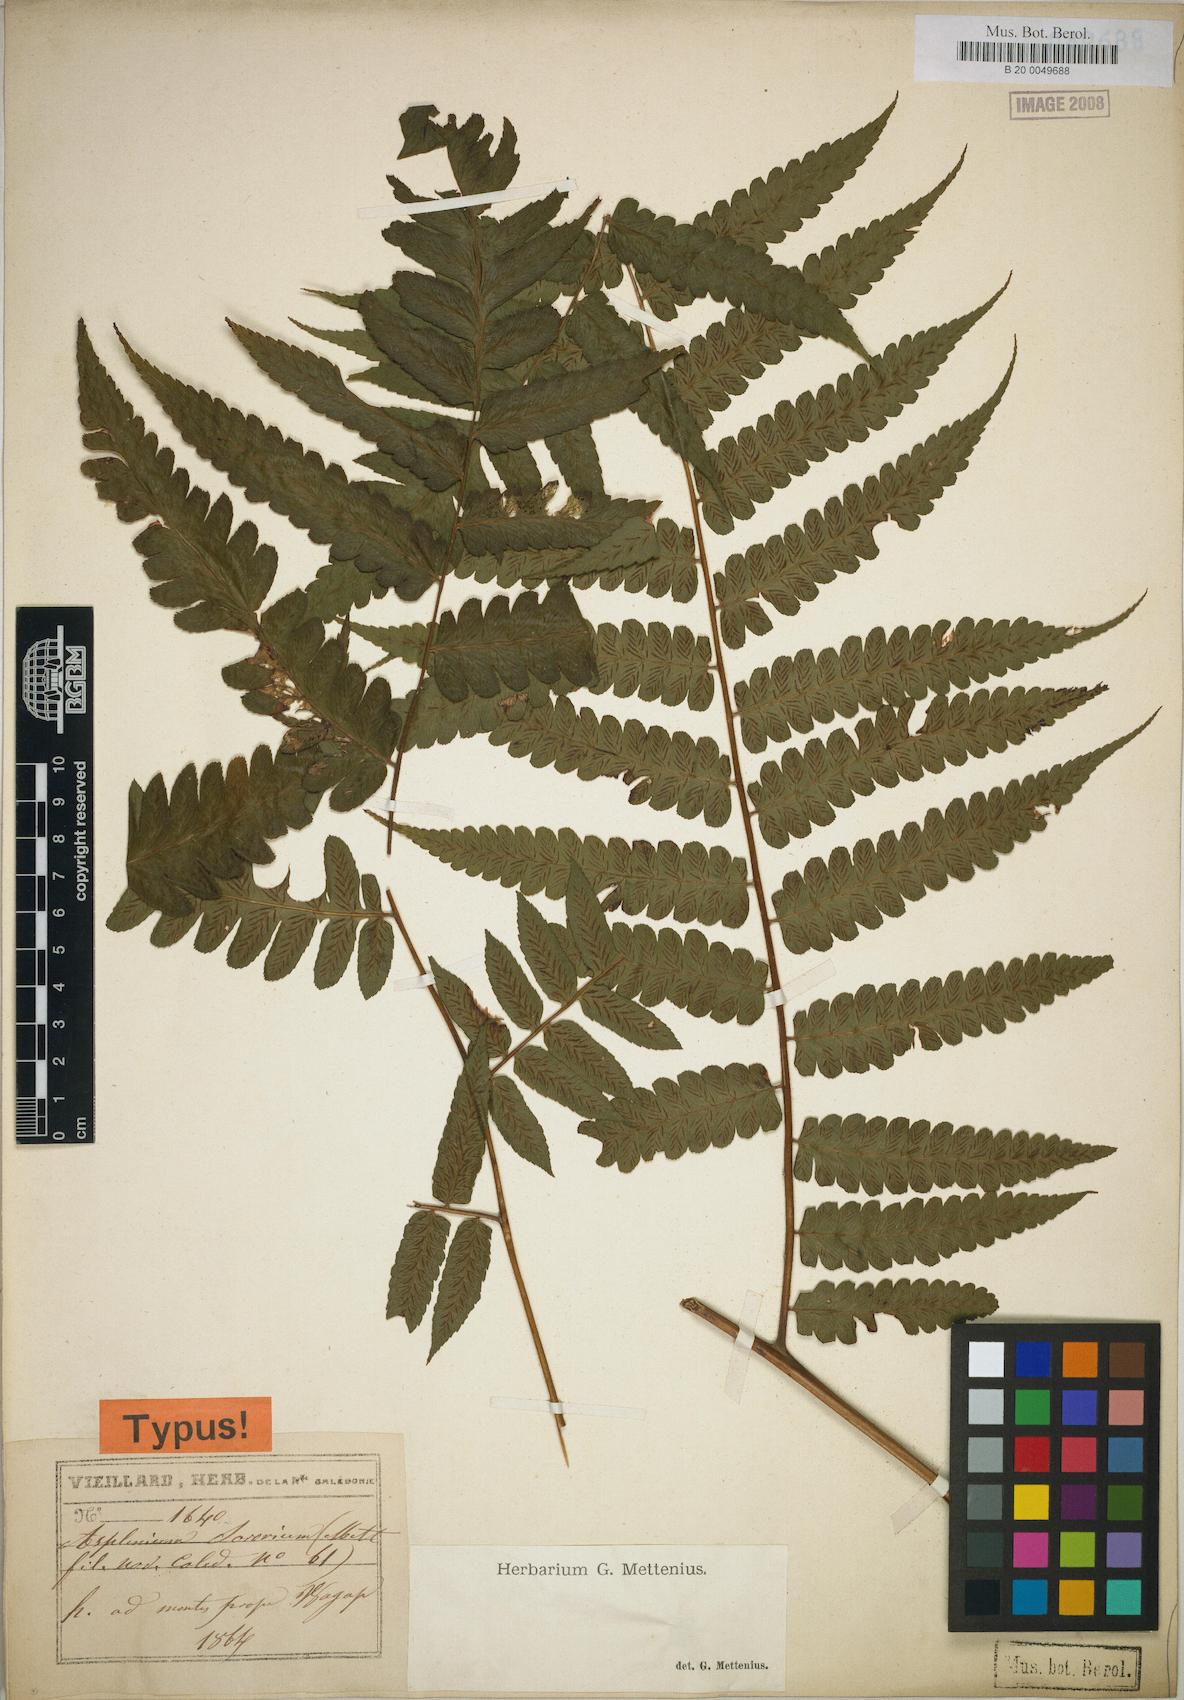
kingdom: Plantae
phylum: Tracheophyta
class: Polypodiopsida
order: Polypodiales
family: Athyriaceae
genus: Diplazium
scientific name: Diplazium sororium
